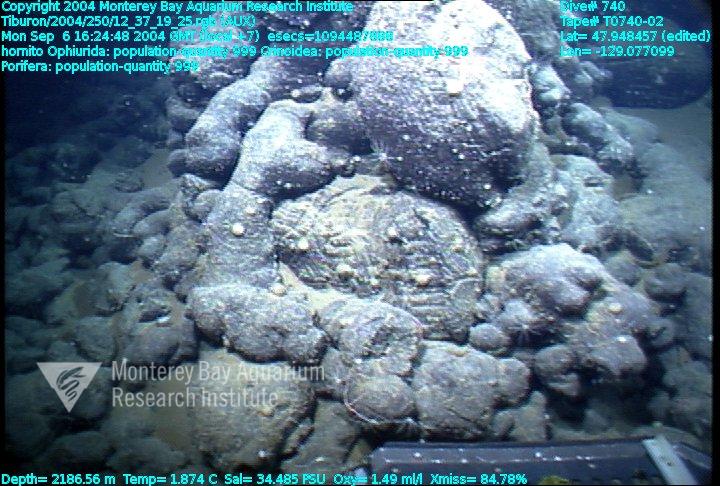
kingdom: Animalia
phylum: Porifera
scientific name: Porifera
